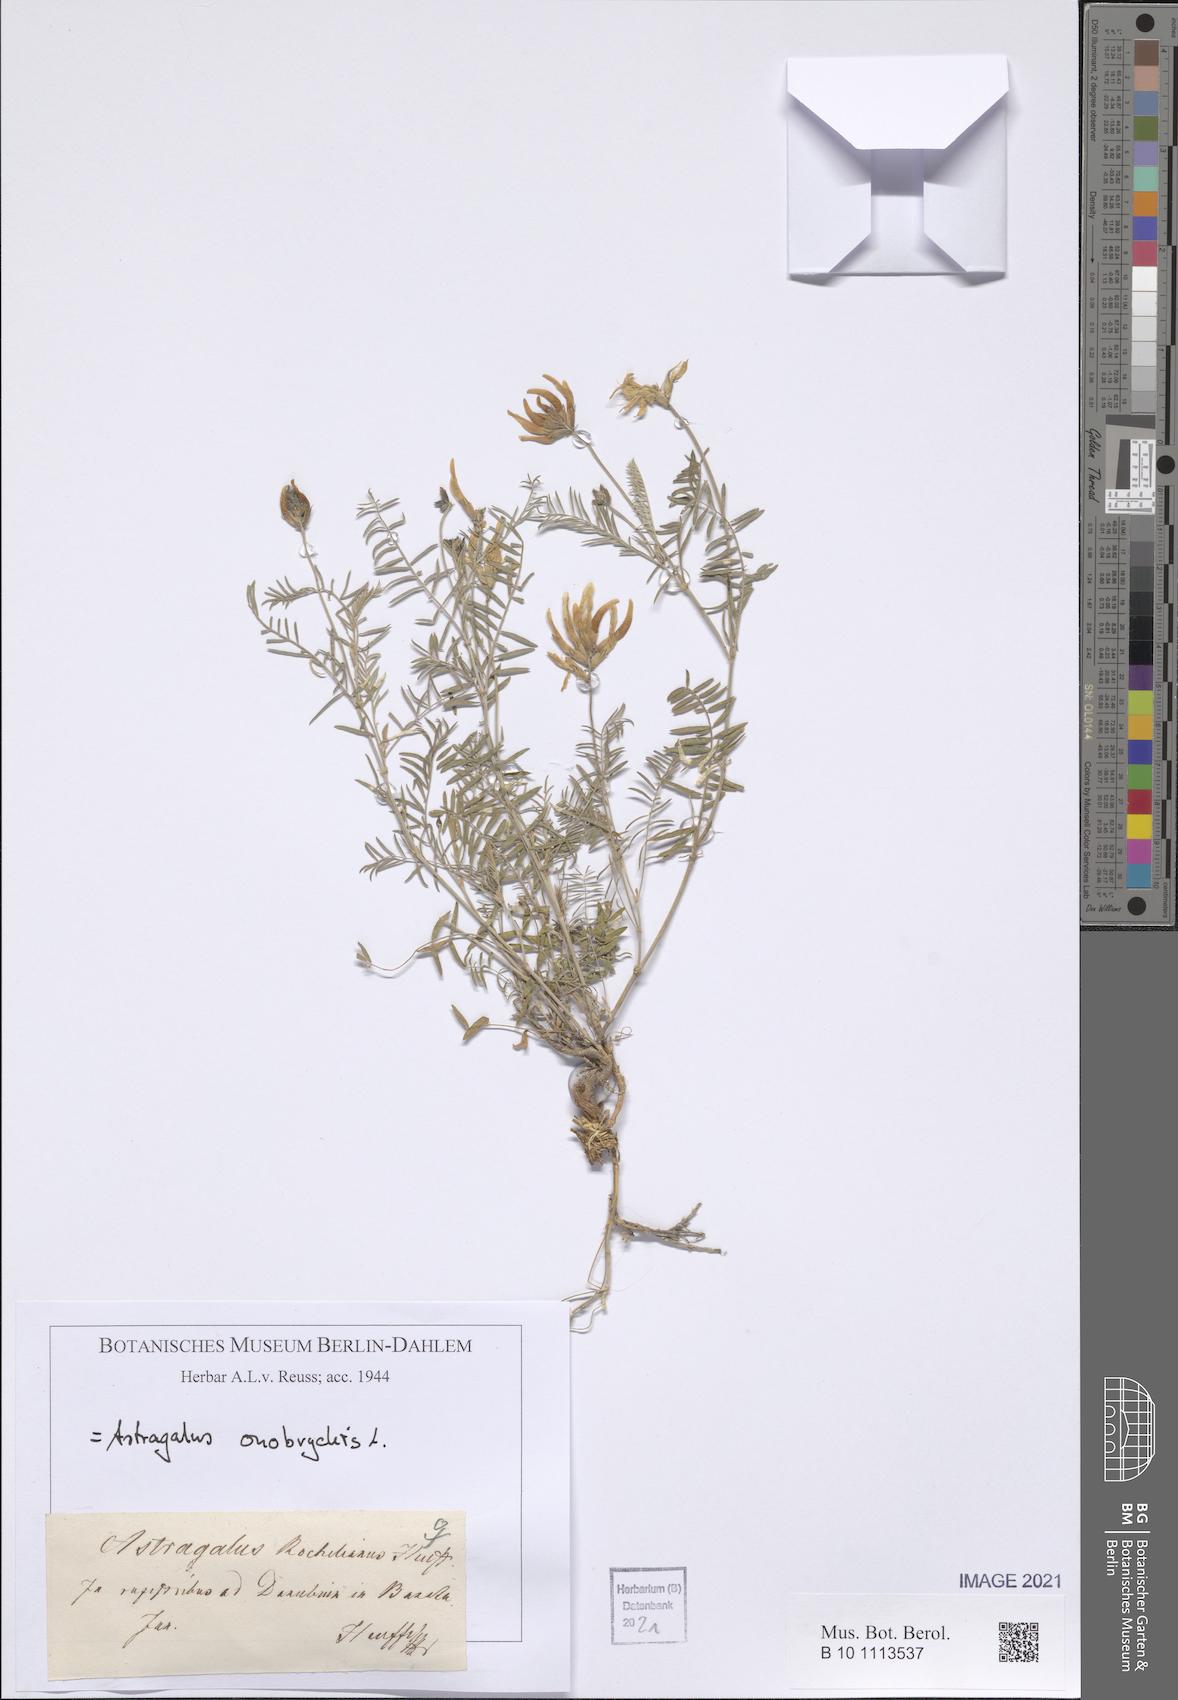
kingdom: Plantae
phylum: Tracheophyta
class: Magnoliopsida
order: Fabales
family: Fabaceae
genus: Astragalus
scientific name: Astragalus onobrychis
